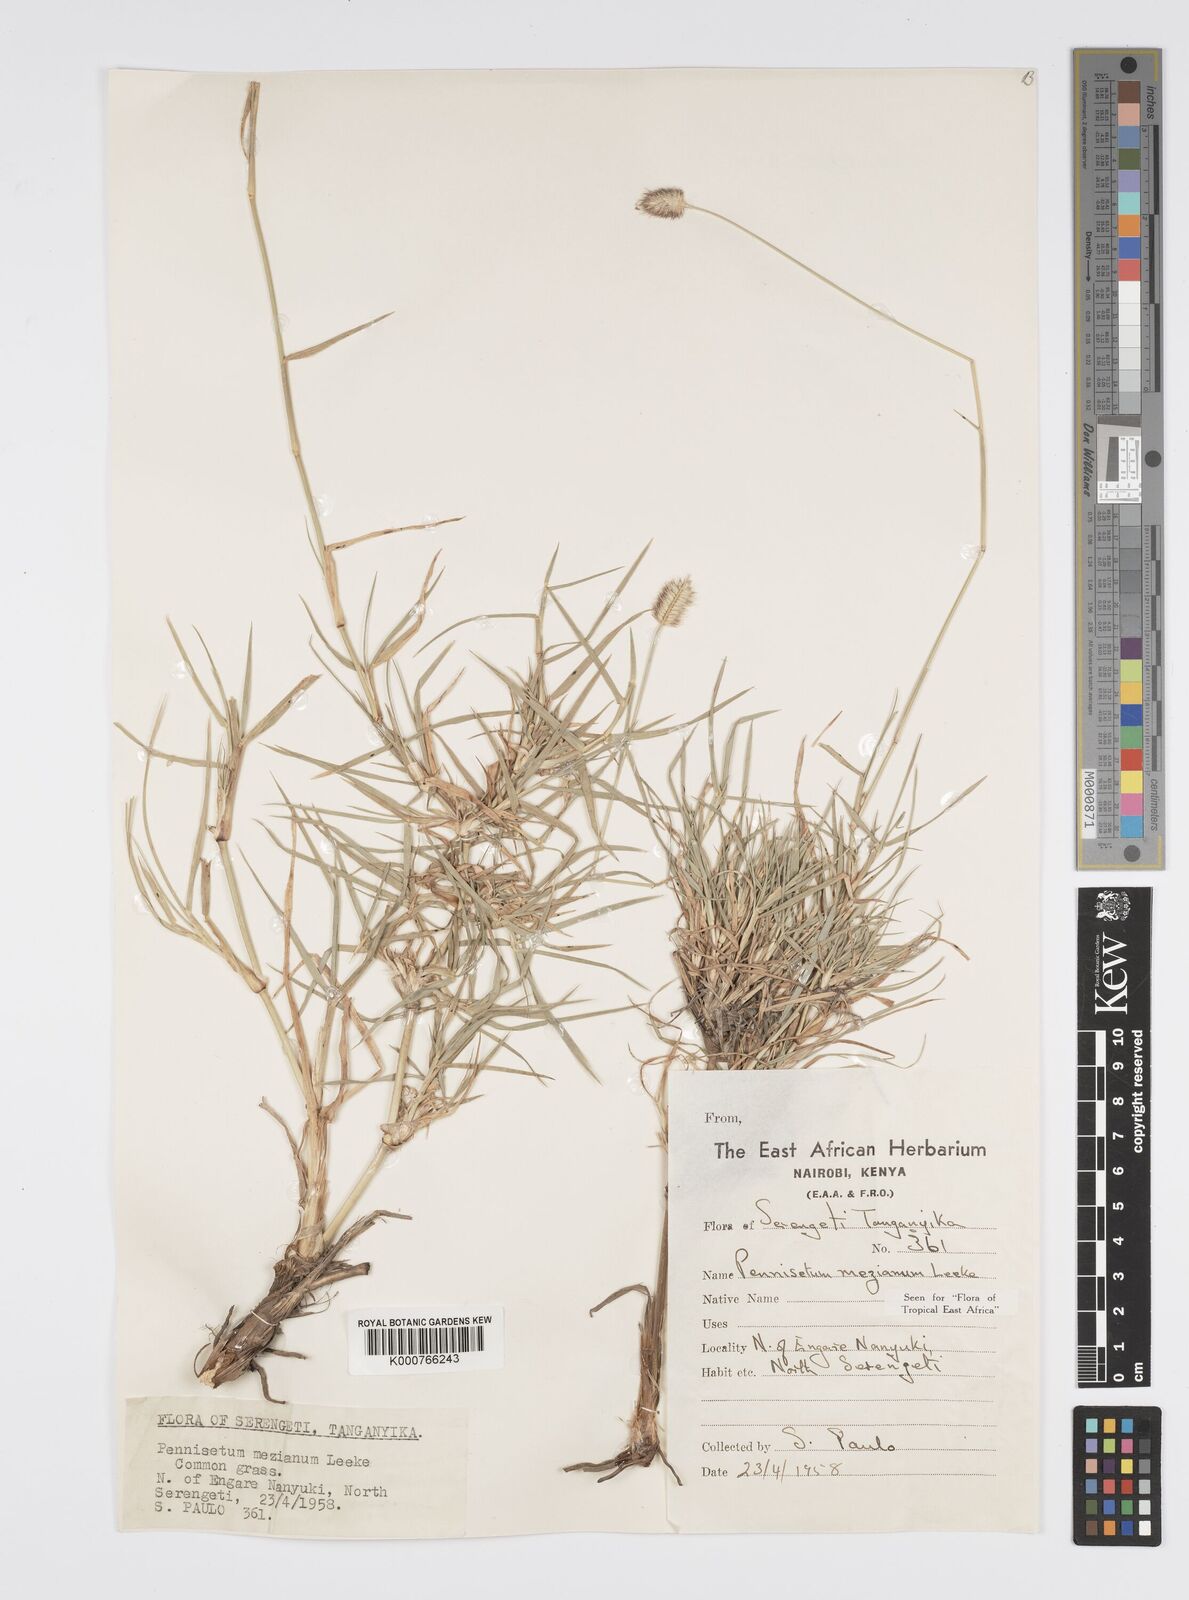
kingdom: Plantae
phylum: Tracheophyta
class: Liliopsida
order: Poales
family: Poaceae
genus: Cenchrus
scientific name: Cenchrus mezianus
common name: Bamboo grass
